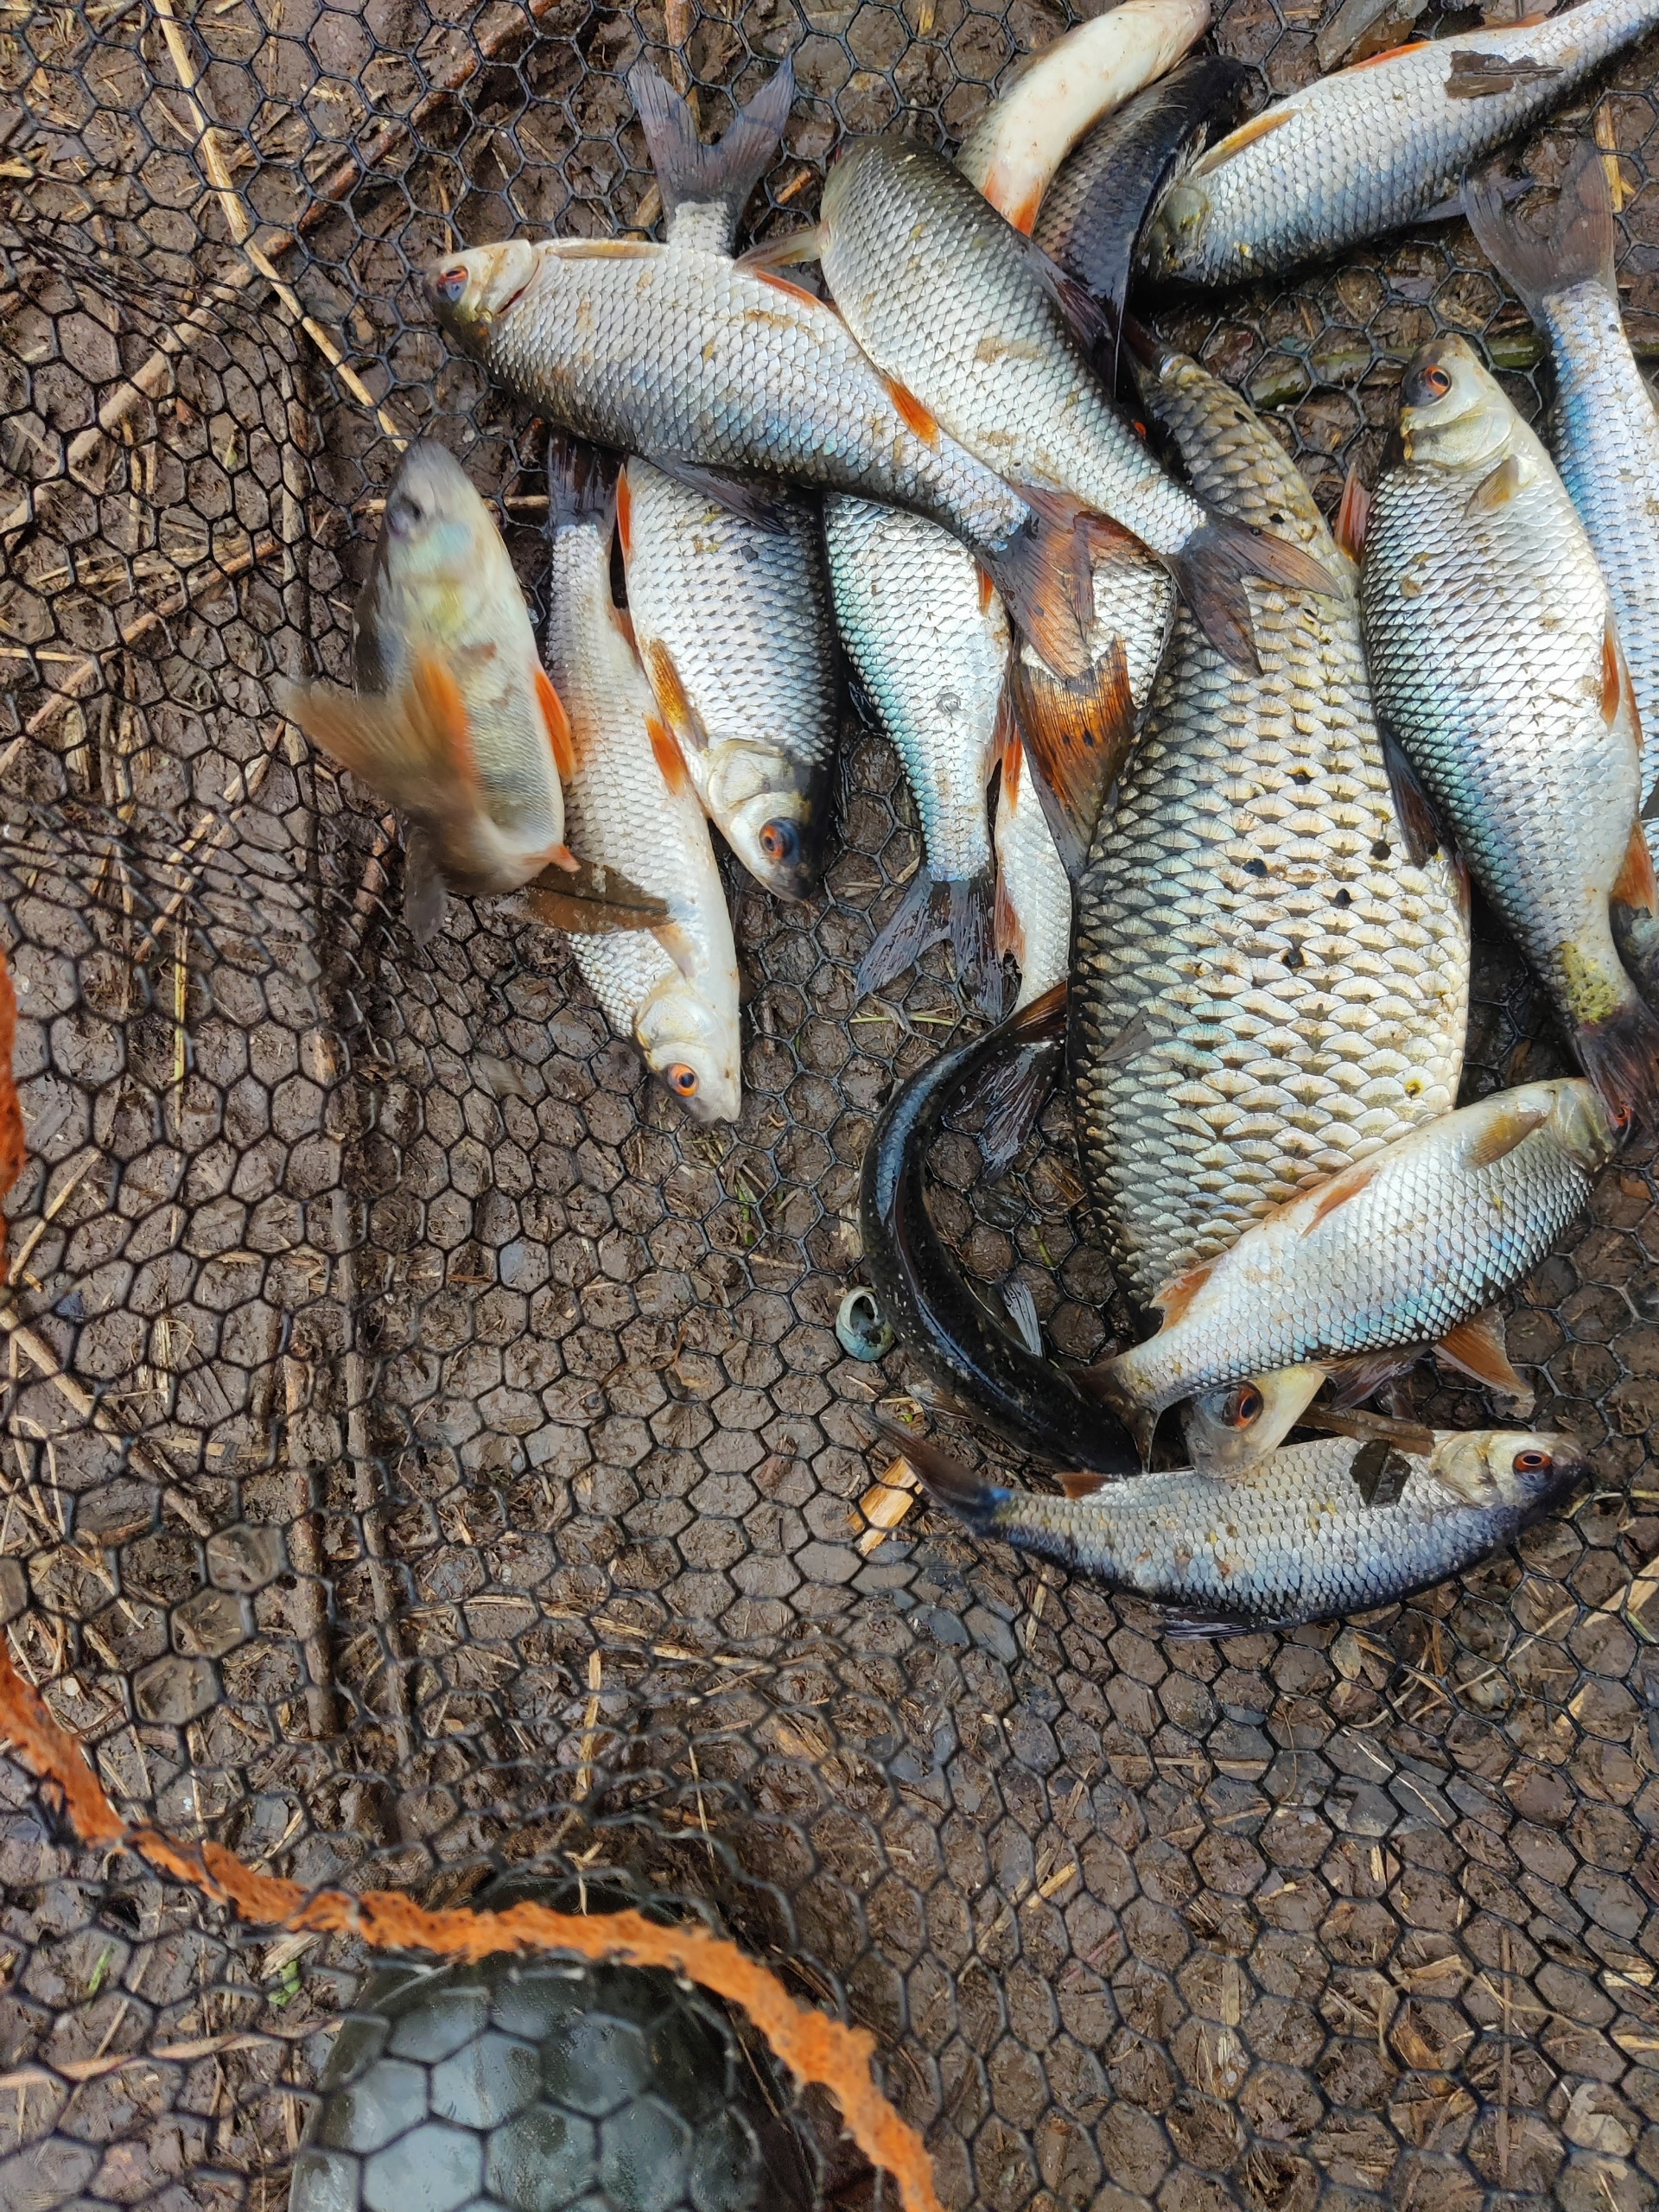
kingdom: Animalia
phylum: Chordata
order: Perciformes
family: Percidae
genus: Perca
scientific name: Perca fluviatilis
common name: Aborre
